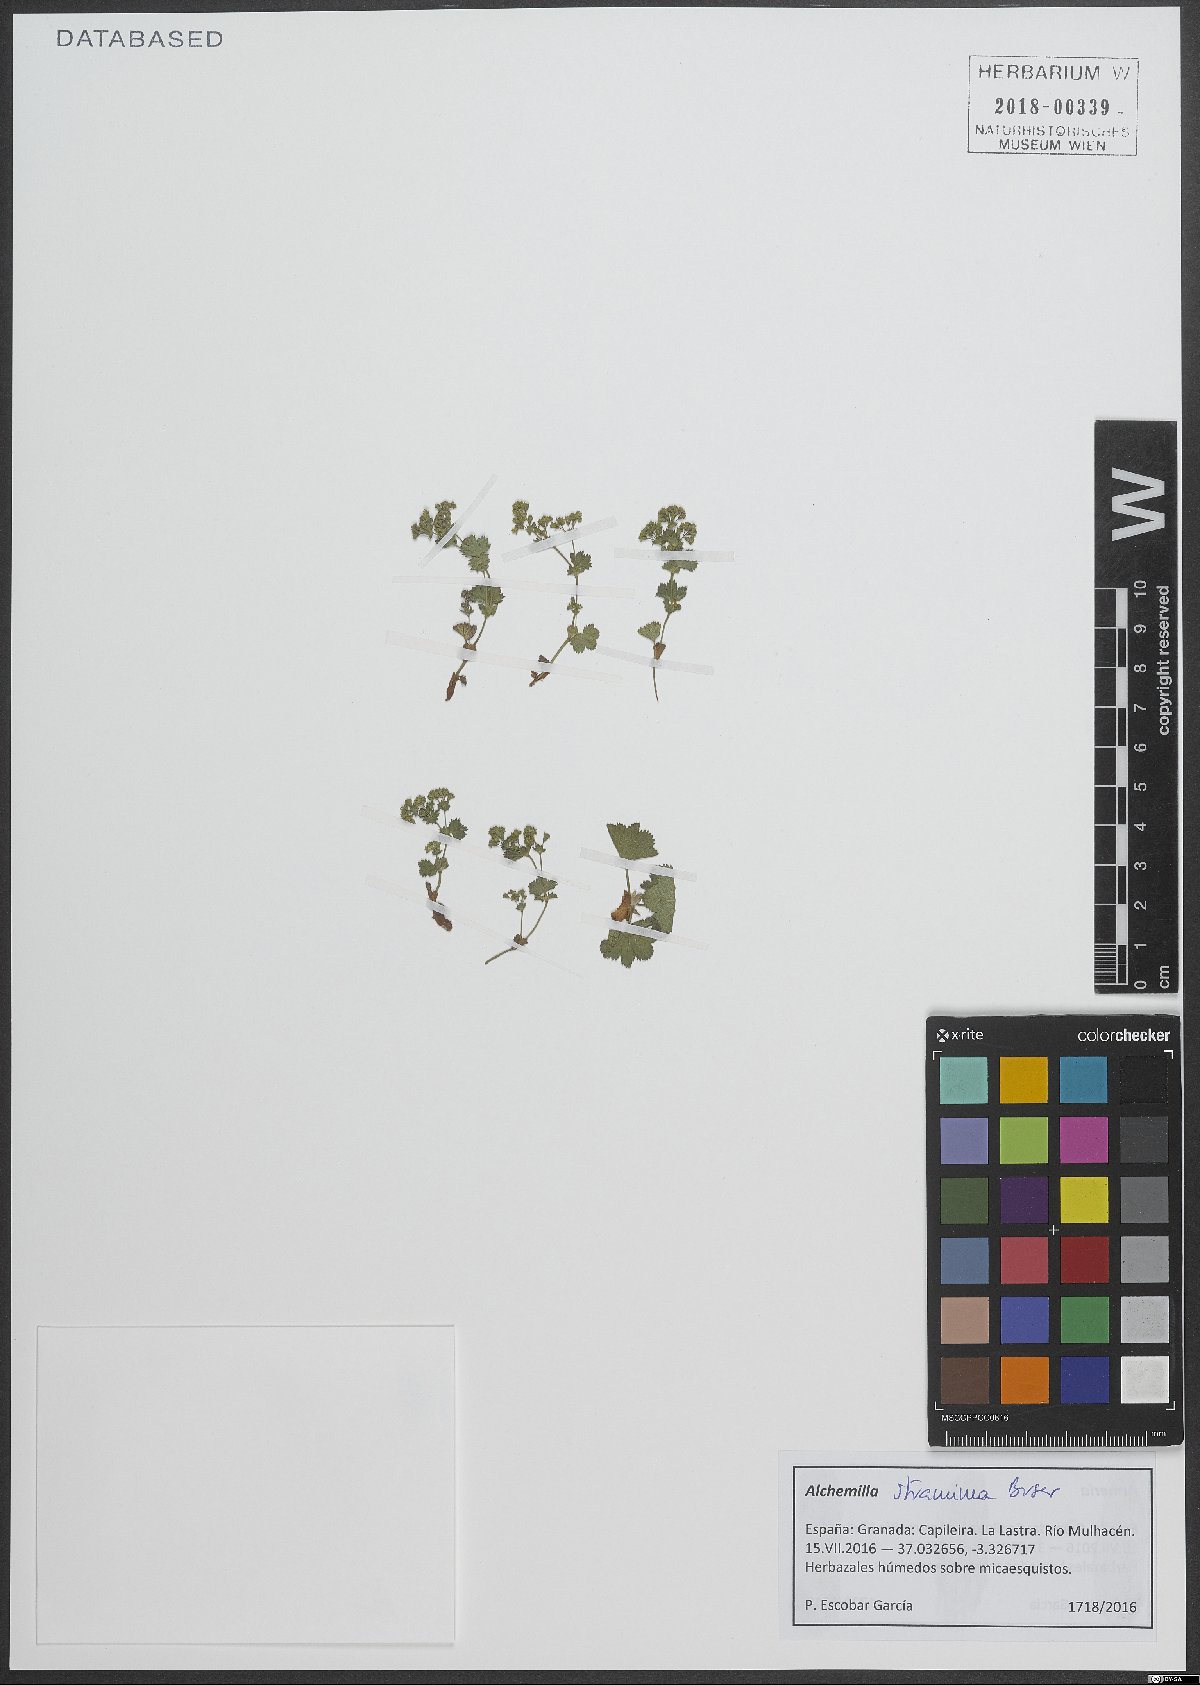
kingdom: Plantae
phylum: Tracheophyta
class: Magnoliopsida
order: Rosales
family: Rosaceae
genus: Alchemilla
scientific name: Alchemilla straminea
